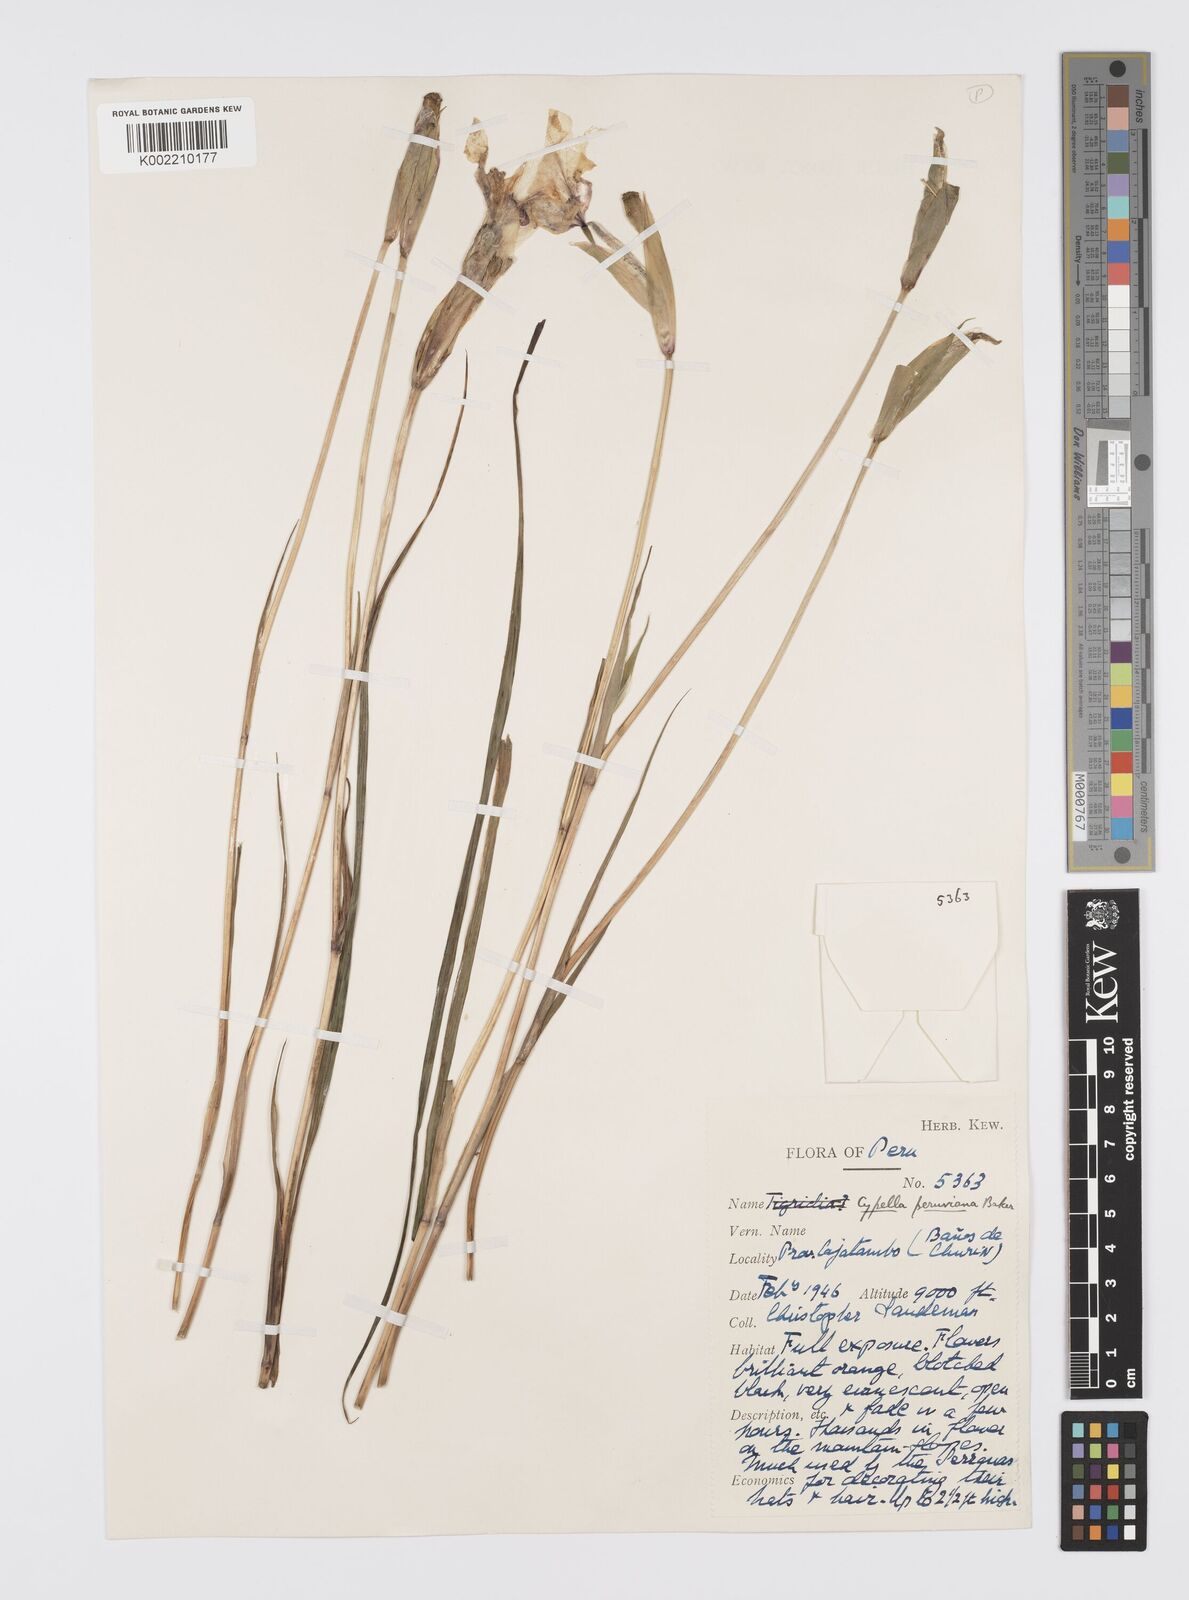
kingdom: Plantae
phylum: Tracheophyta
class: Liliopsida
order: Asparagales
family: Iridaceae
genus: Hesperoxiphion
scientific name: Hesperoxiphion herrerae
